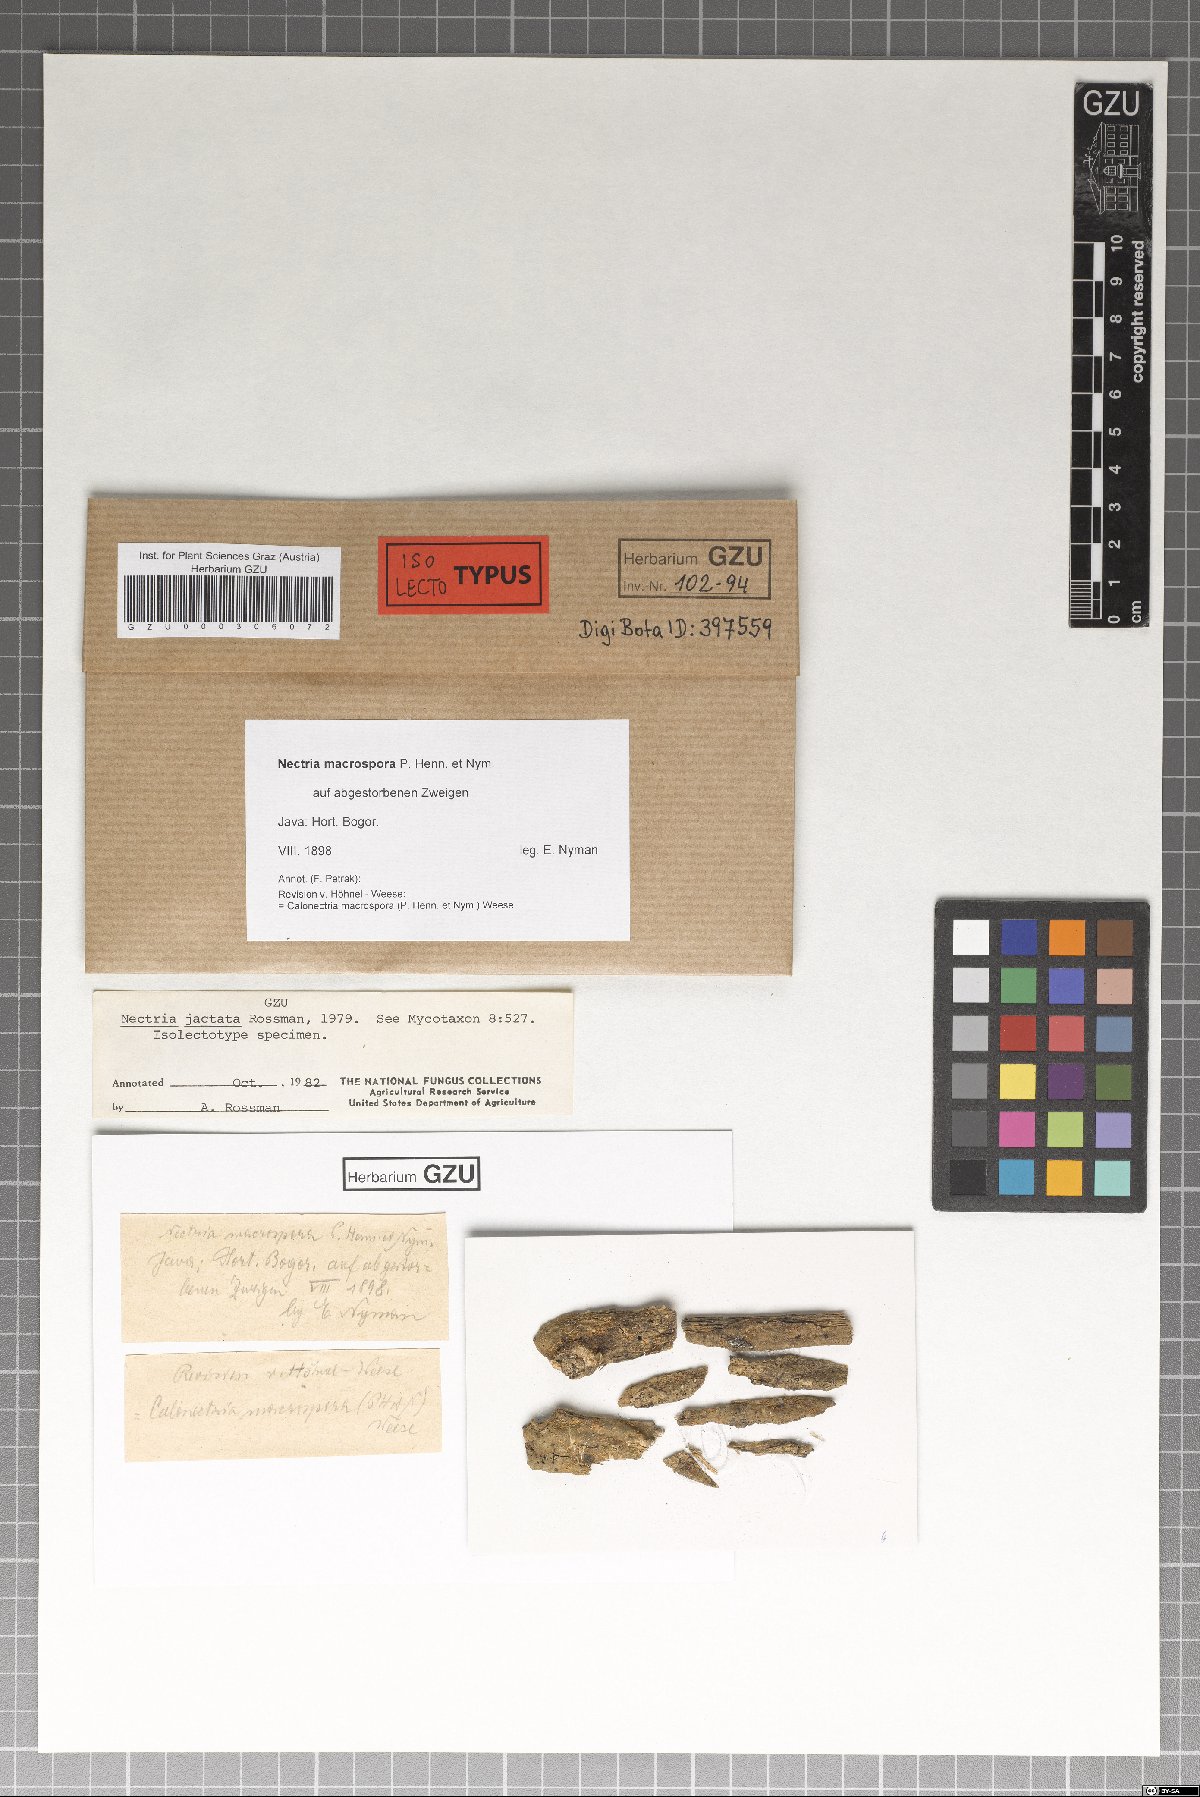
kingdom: Fungi
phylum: Ascomycota
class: Sordariomycetes
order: Hypocreales
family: Nectriaceae
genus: Nectria
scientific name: Nectria gigaspora
